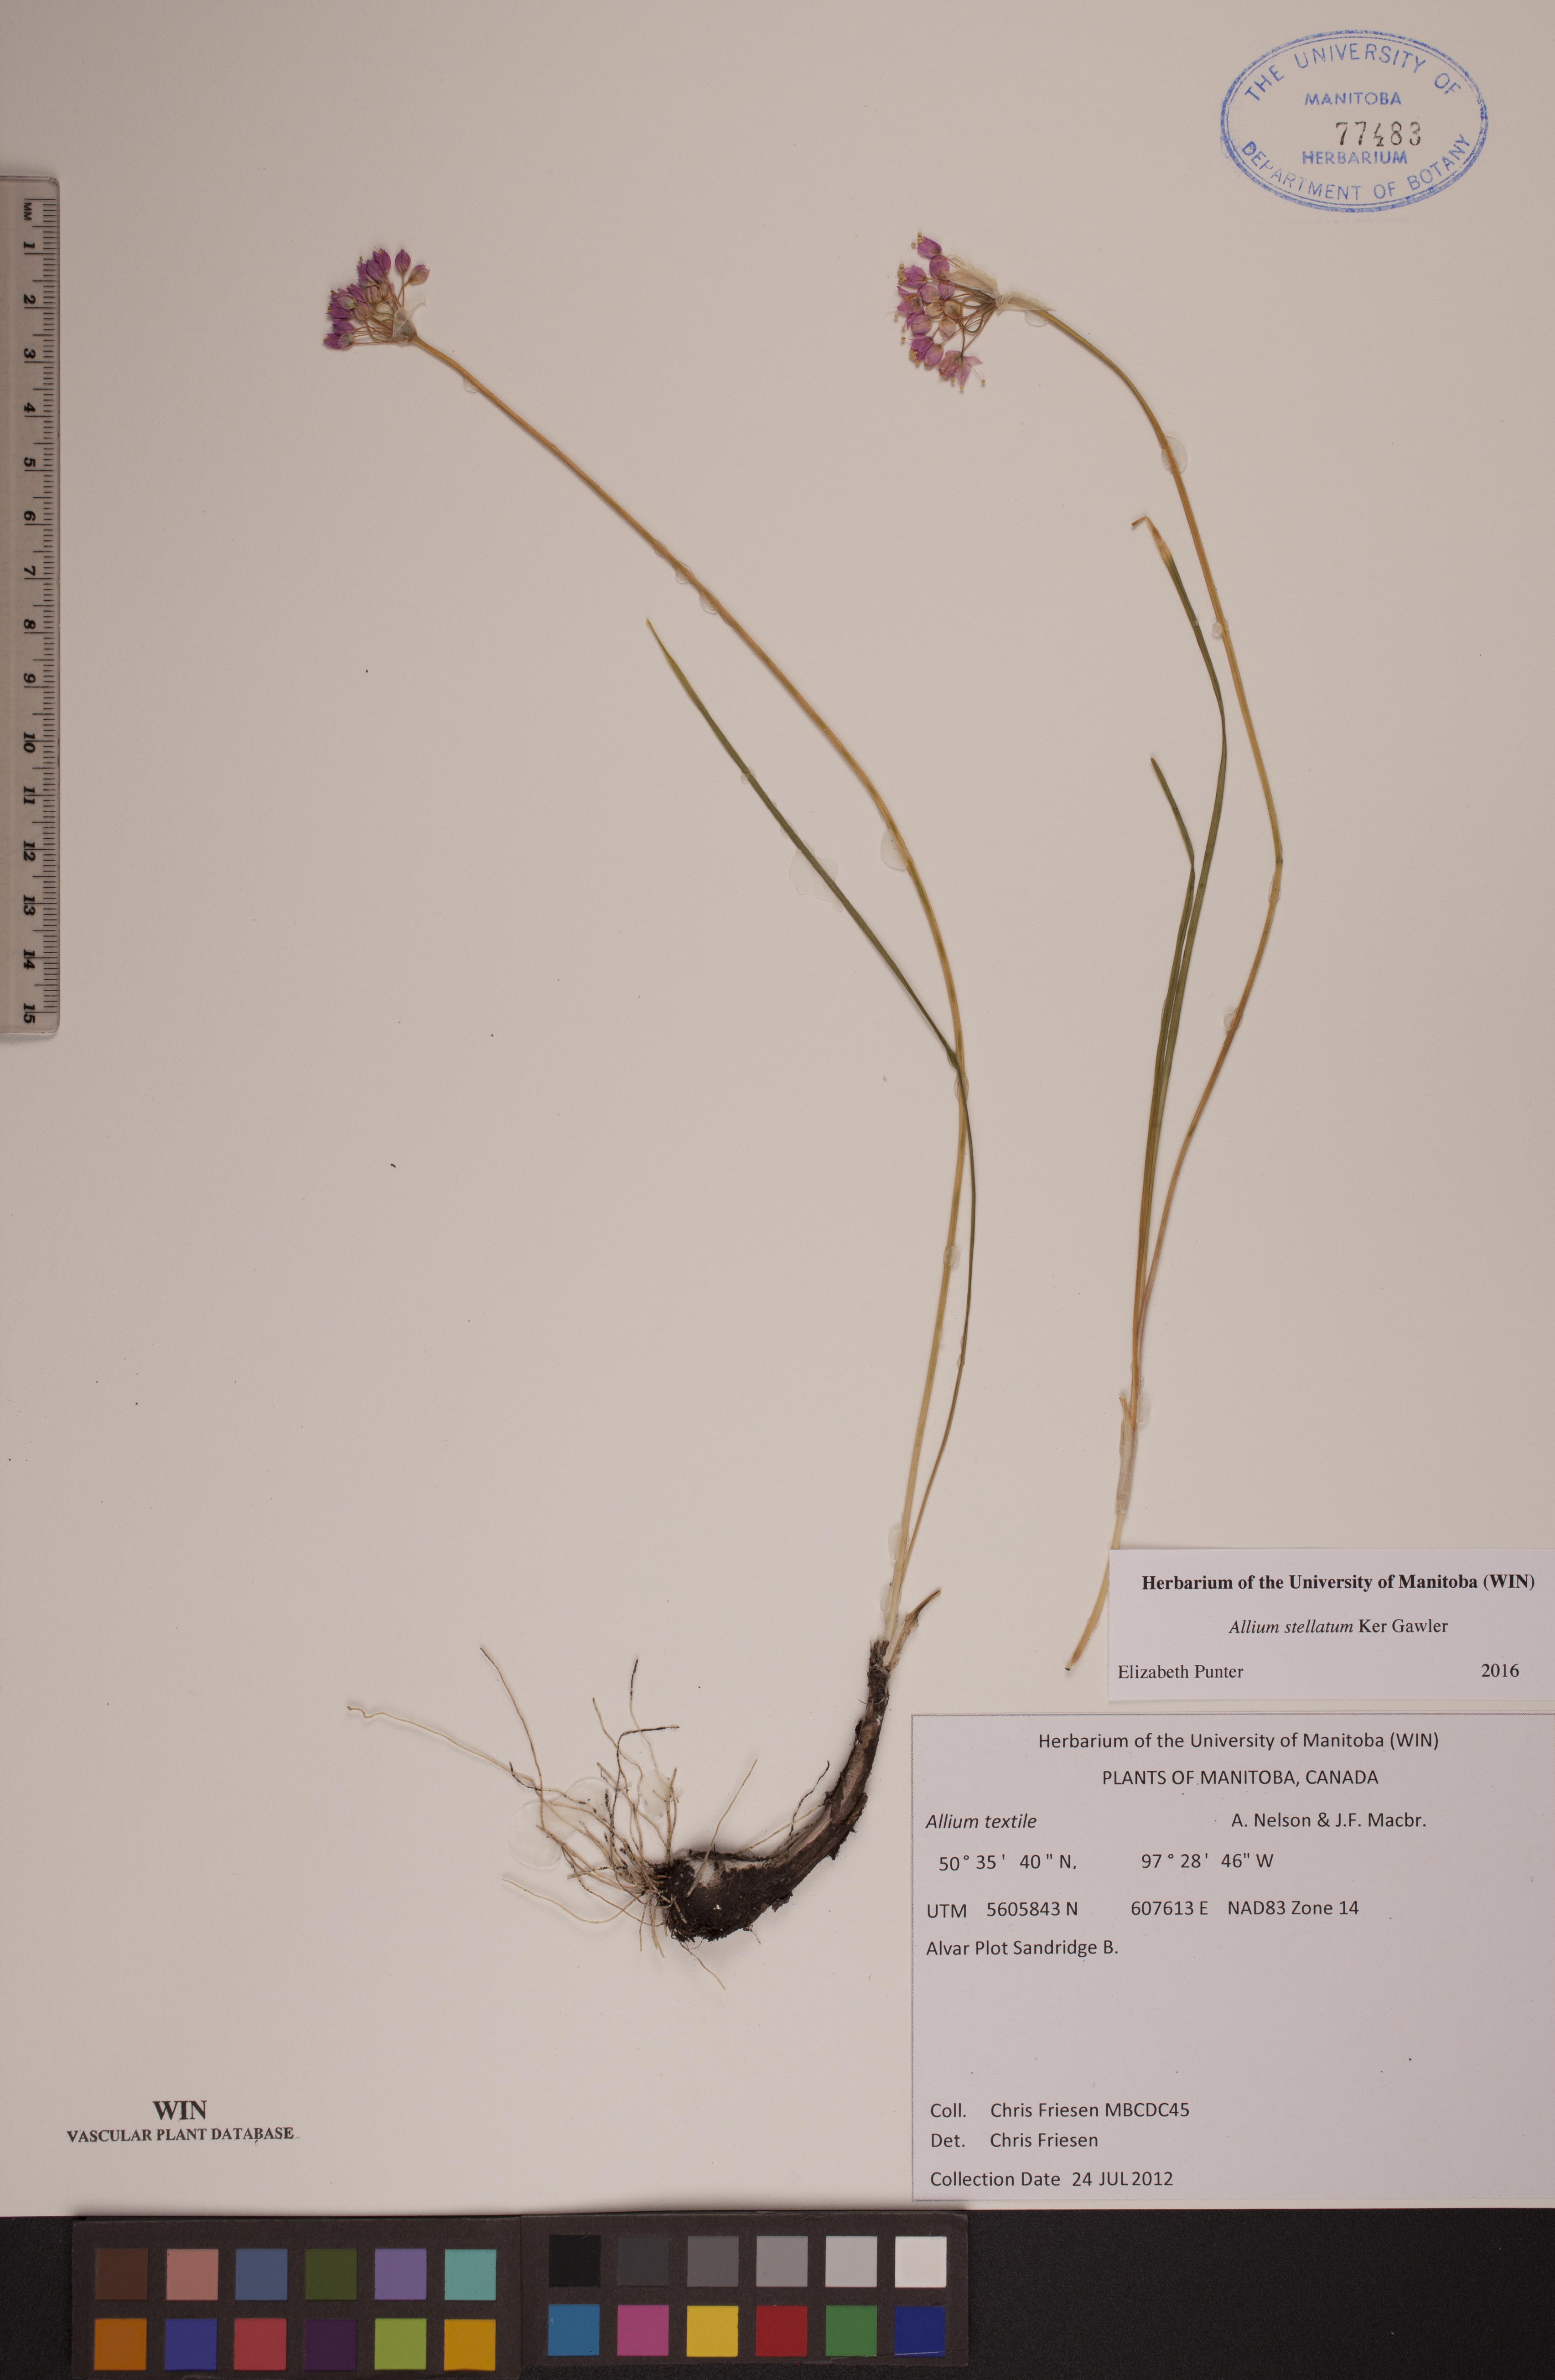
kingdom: Plantae
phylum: Tracheophyta
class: Liliopsida
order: Asparagales
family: Amaryllidaceae
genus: Allium
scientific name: Allium stellatum
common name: Autumn onion
